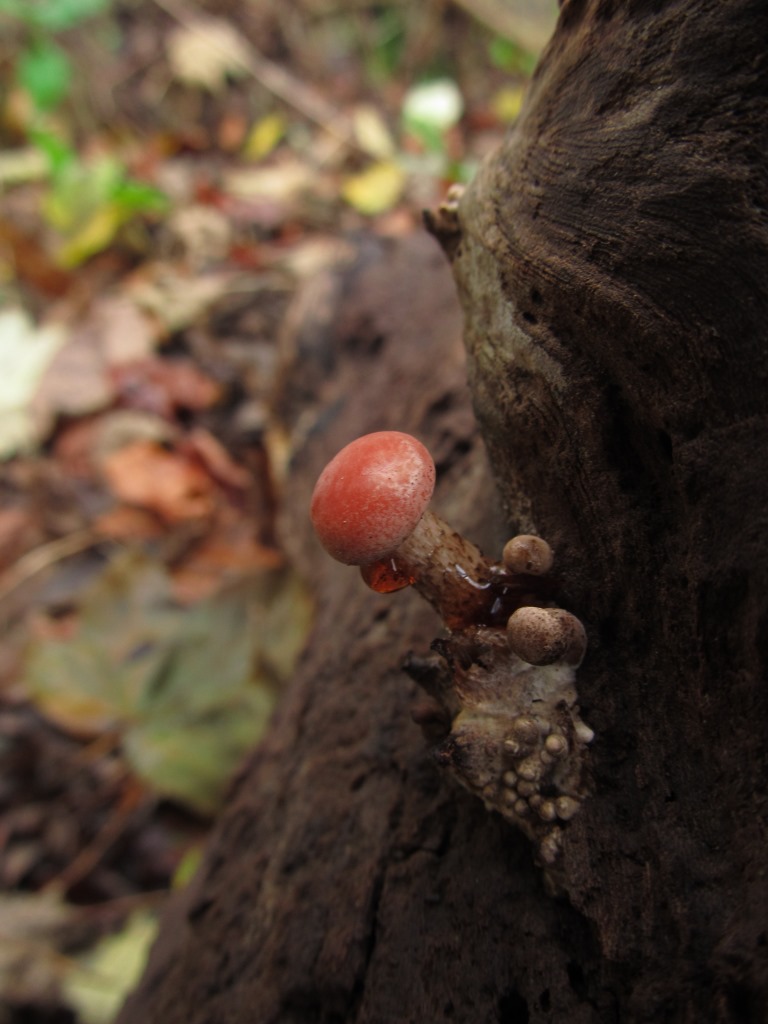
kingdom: Fungi
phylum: Basidiomycota
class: Agaricomycetes
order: Agaricales
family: Physalacriaceae
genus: Rhodotus
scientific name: Rhodotus palmatus
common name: ferskenhat
